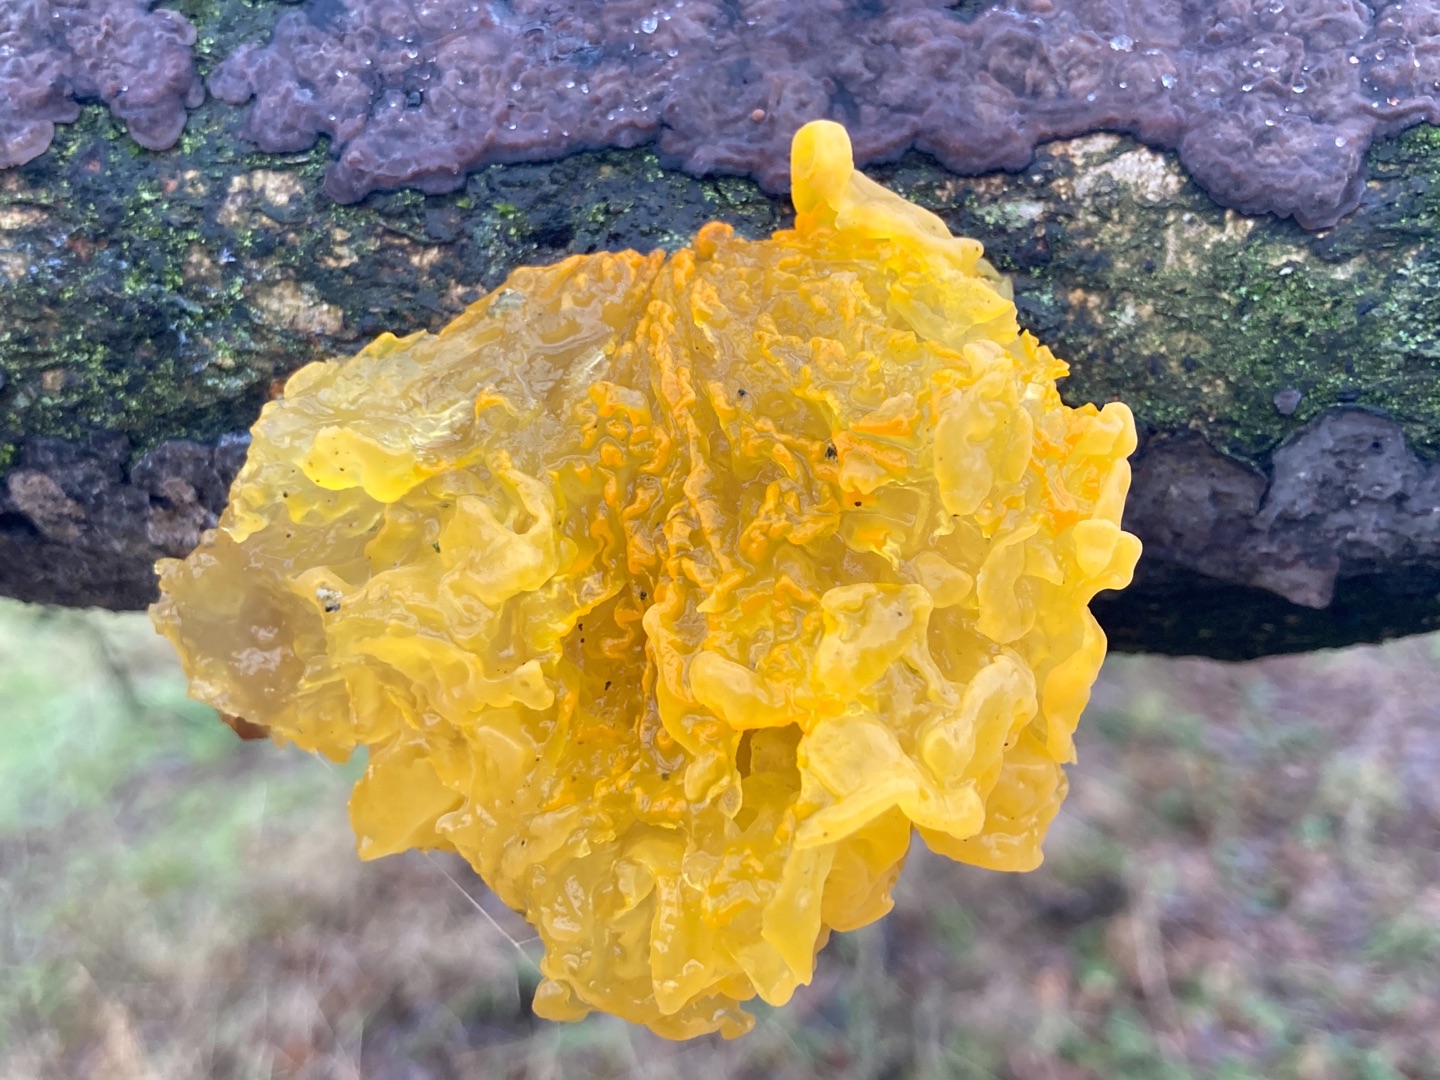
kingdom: Fungi
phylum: Basidiomycota
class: Tremellomycetes
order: Tremellales
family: Tremellaceae
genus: Tremella
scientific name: Tremella mesenterica
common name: Gul bævresvamp
